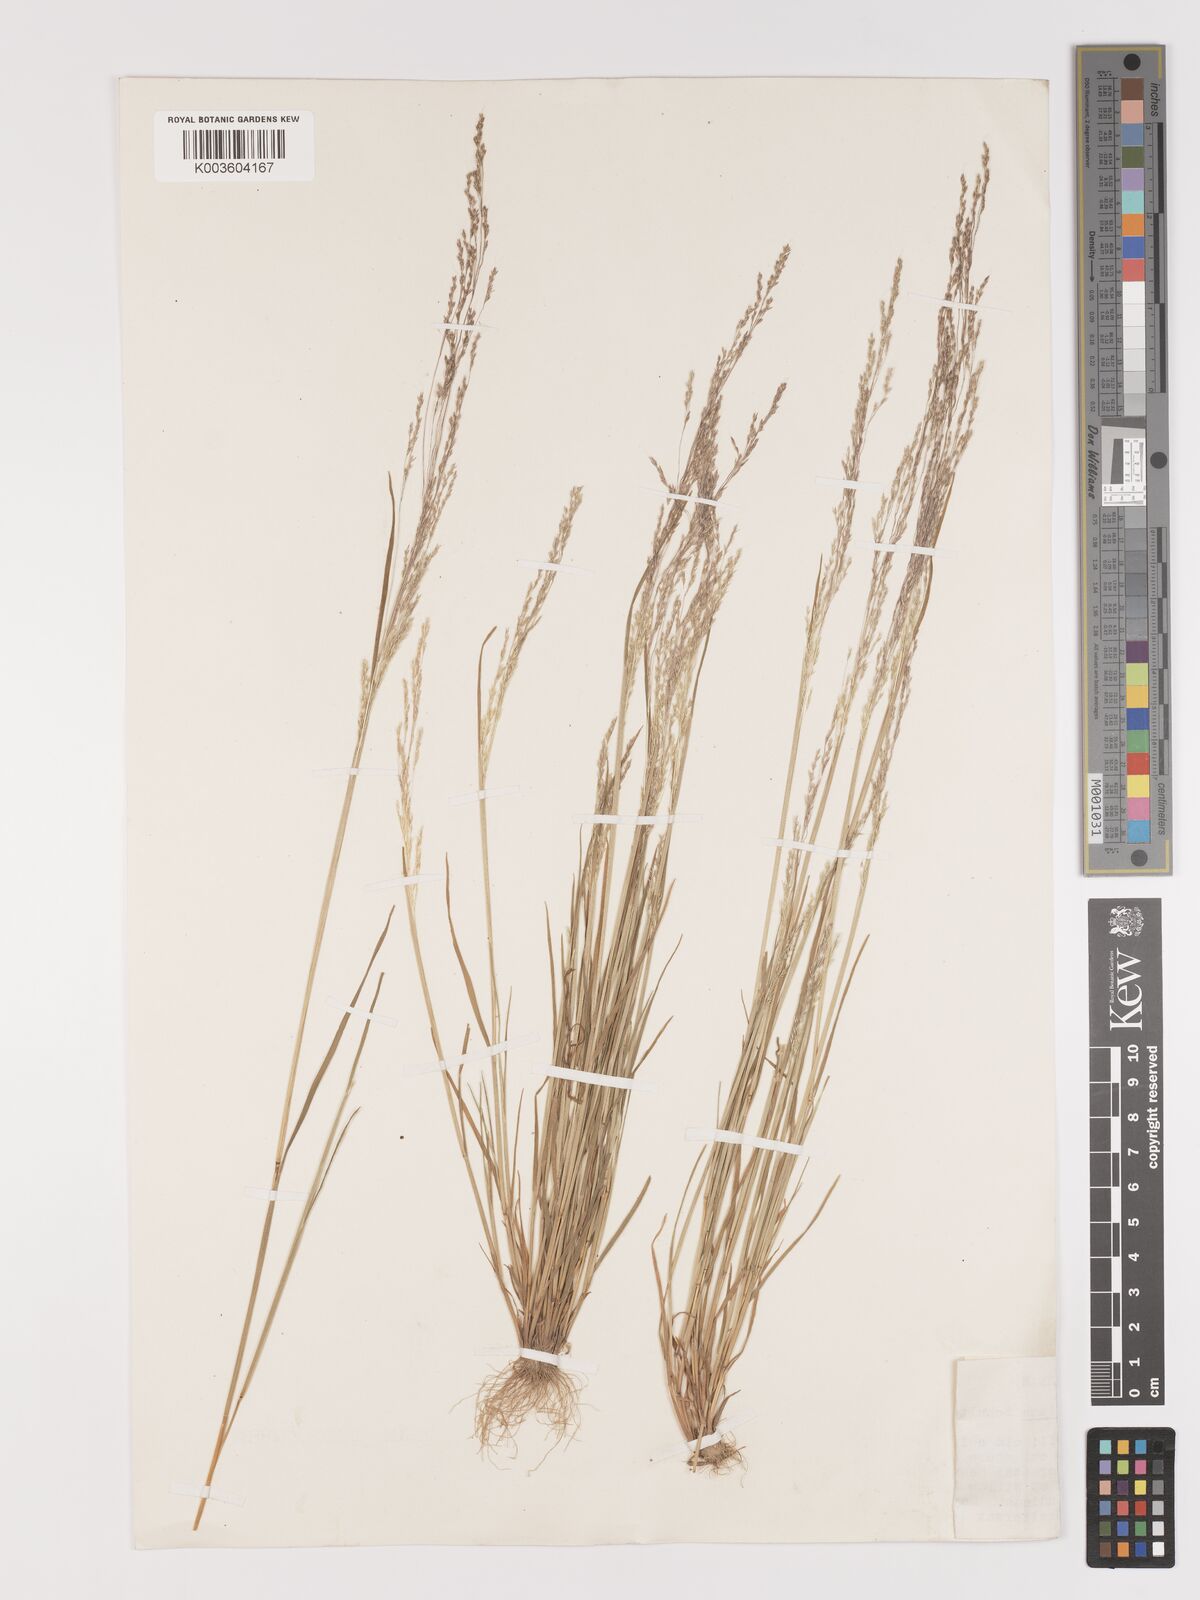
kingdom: Plantae
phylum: Tracheophyta
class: Liliopsida
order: Poales
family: Poaceae
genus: Agrostis
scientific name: Agrostis elliottiana
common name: Elliott's bent
